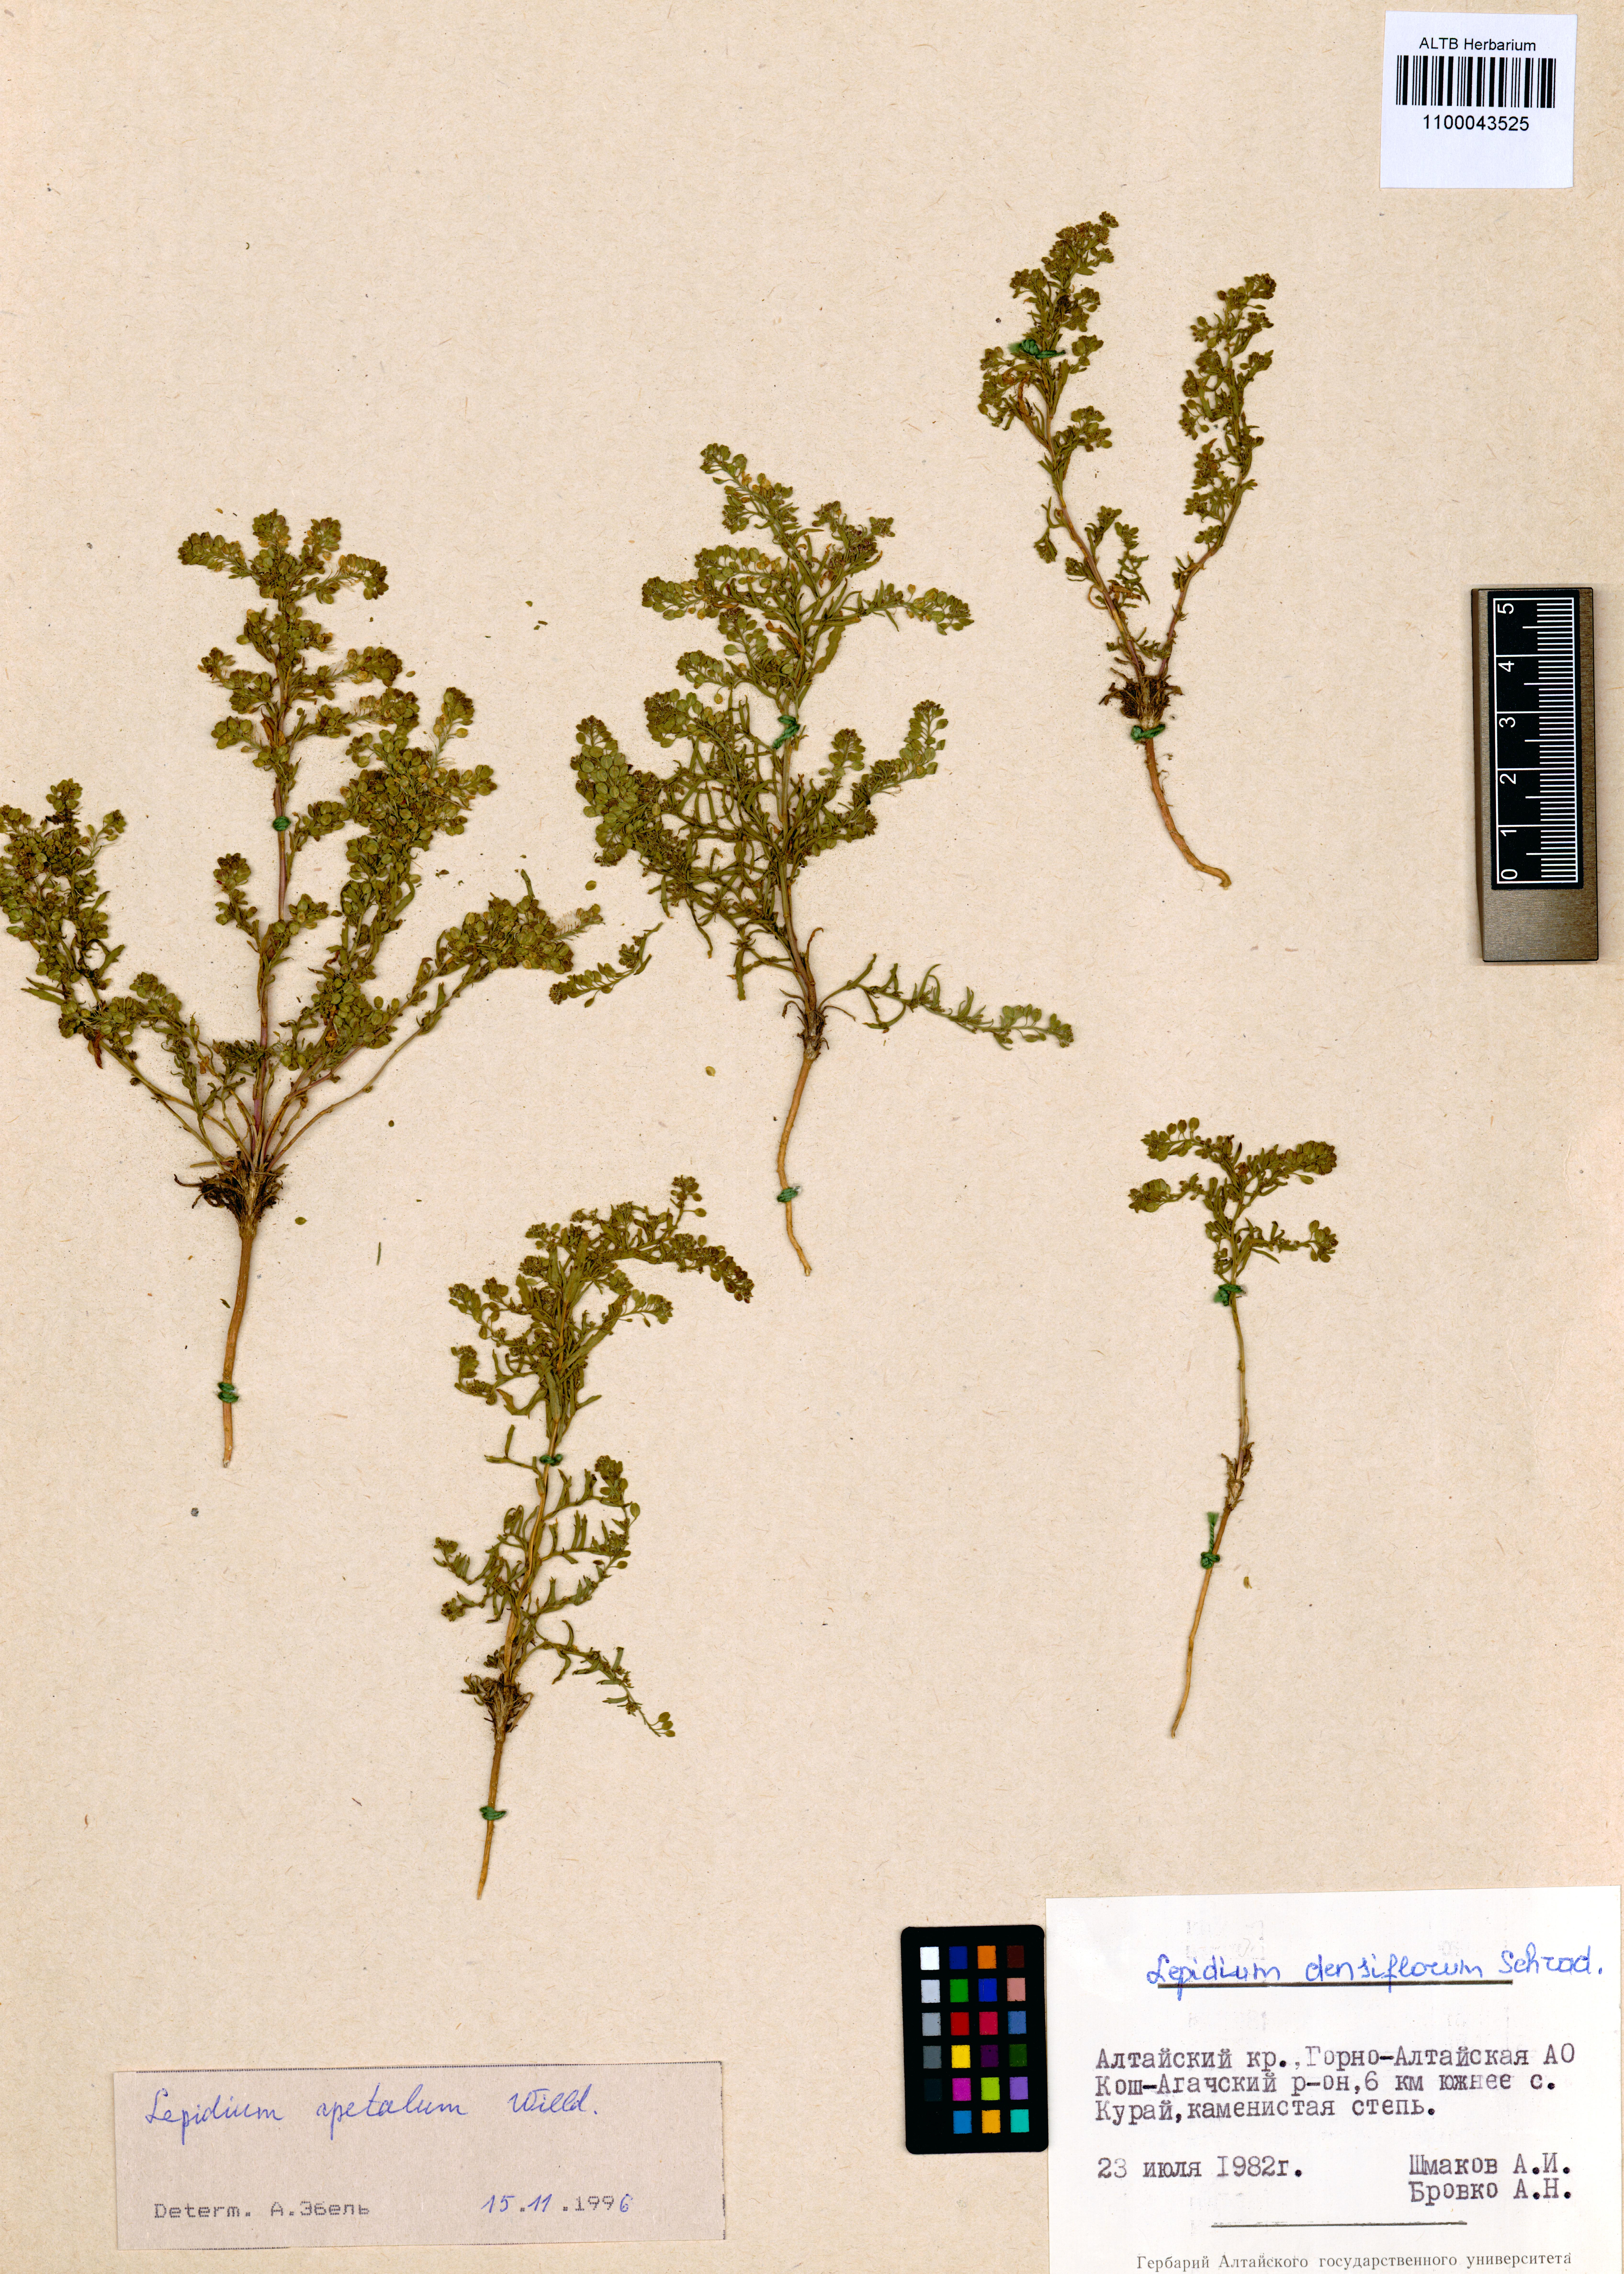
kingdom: Plantae
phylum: Tracheophyta
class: Magnoliopsida
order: Brassicales
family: Brassicaceae
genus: Lepidium
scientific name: Lepidium apetalum
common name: Pepperweed
